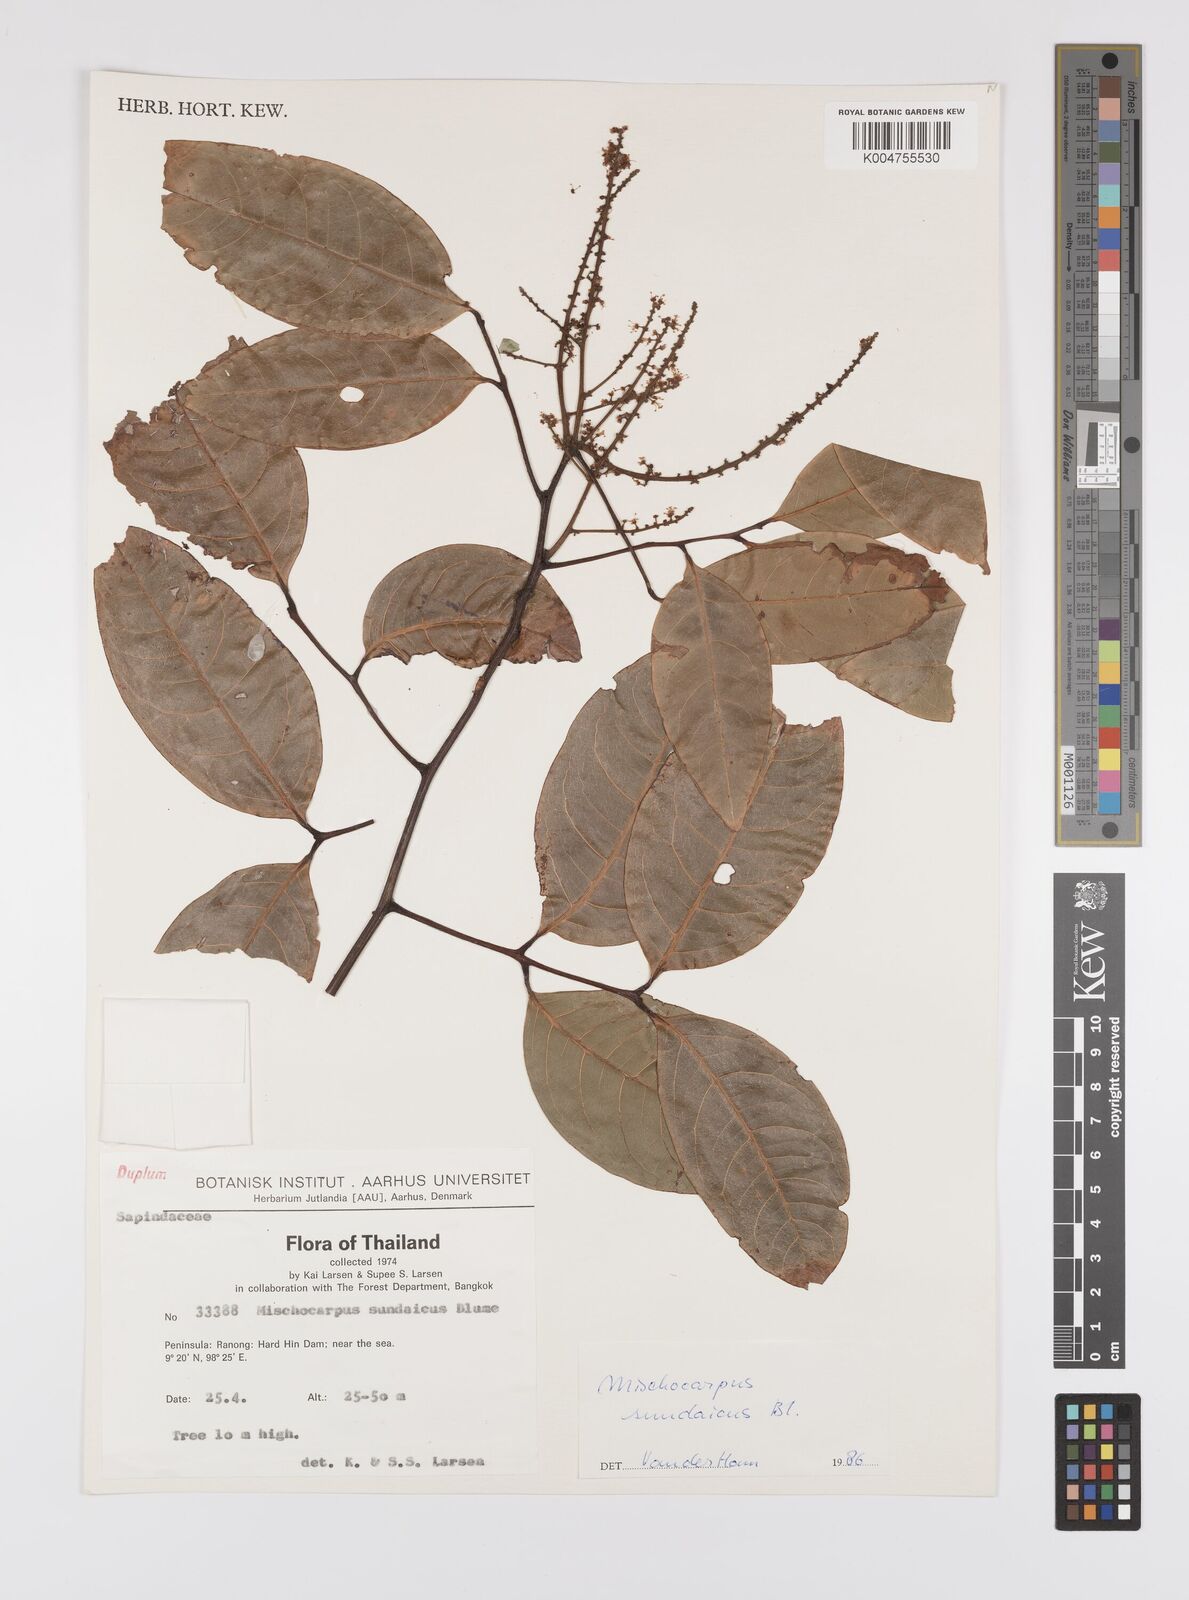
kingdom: Plantae
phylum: Tracheophyta
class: Magnoliopsida
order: Sapindales
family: Sapindaceae
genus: Mischocarpus
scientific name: Mischocarpus sundaicus
